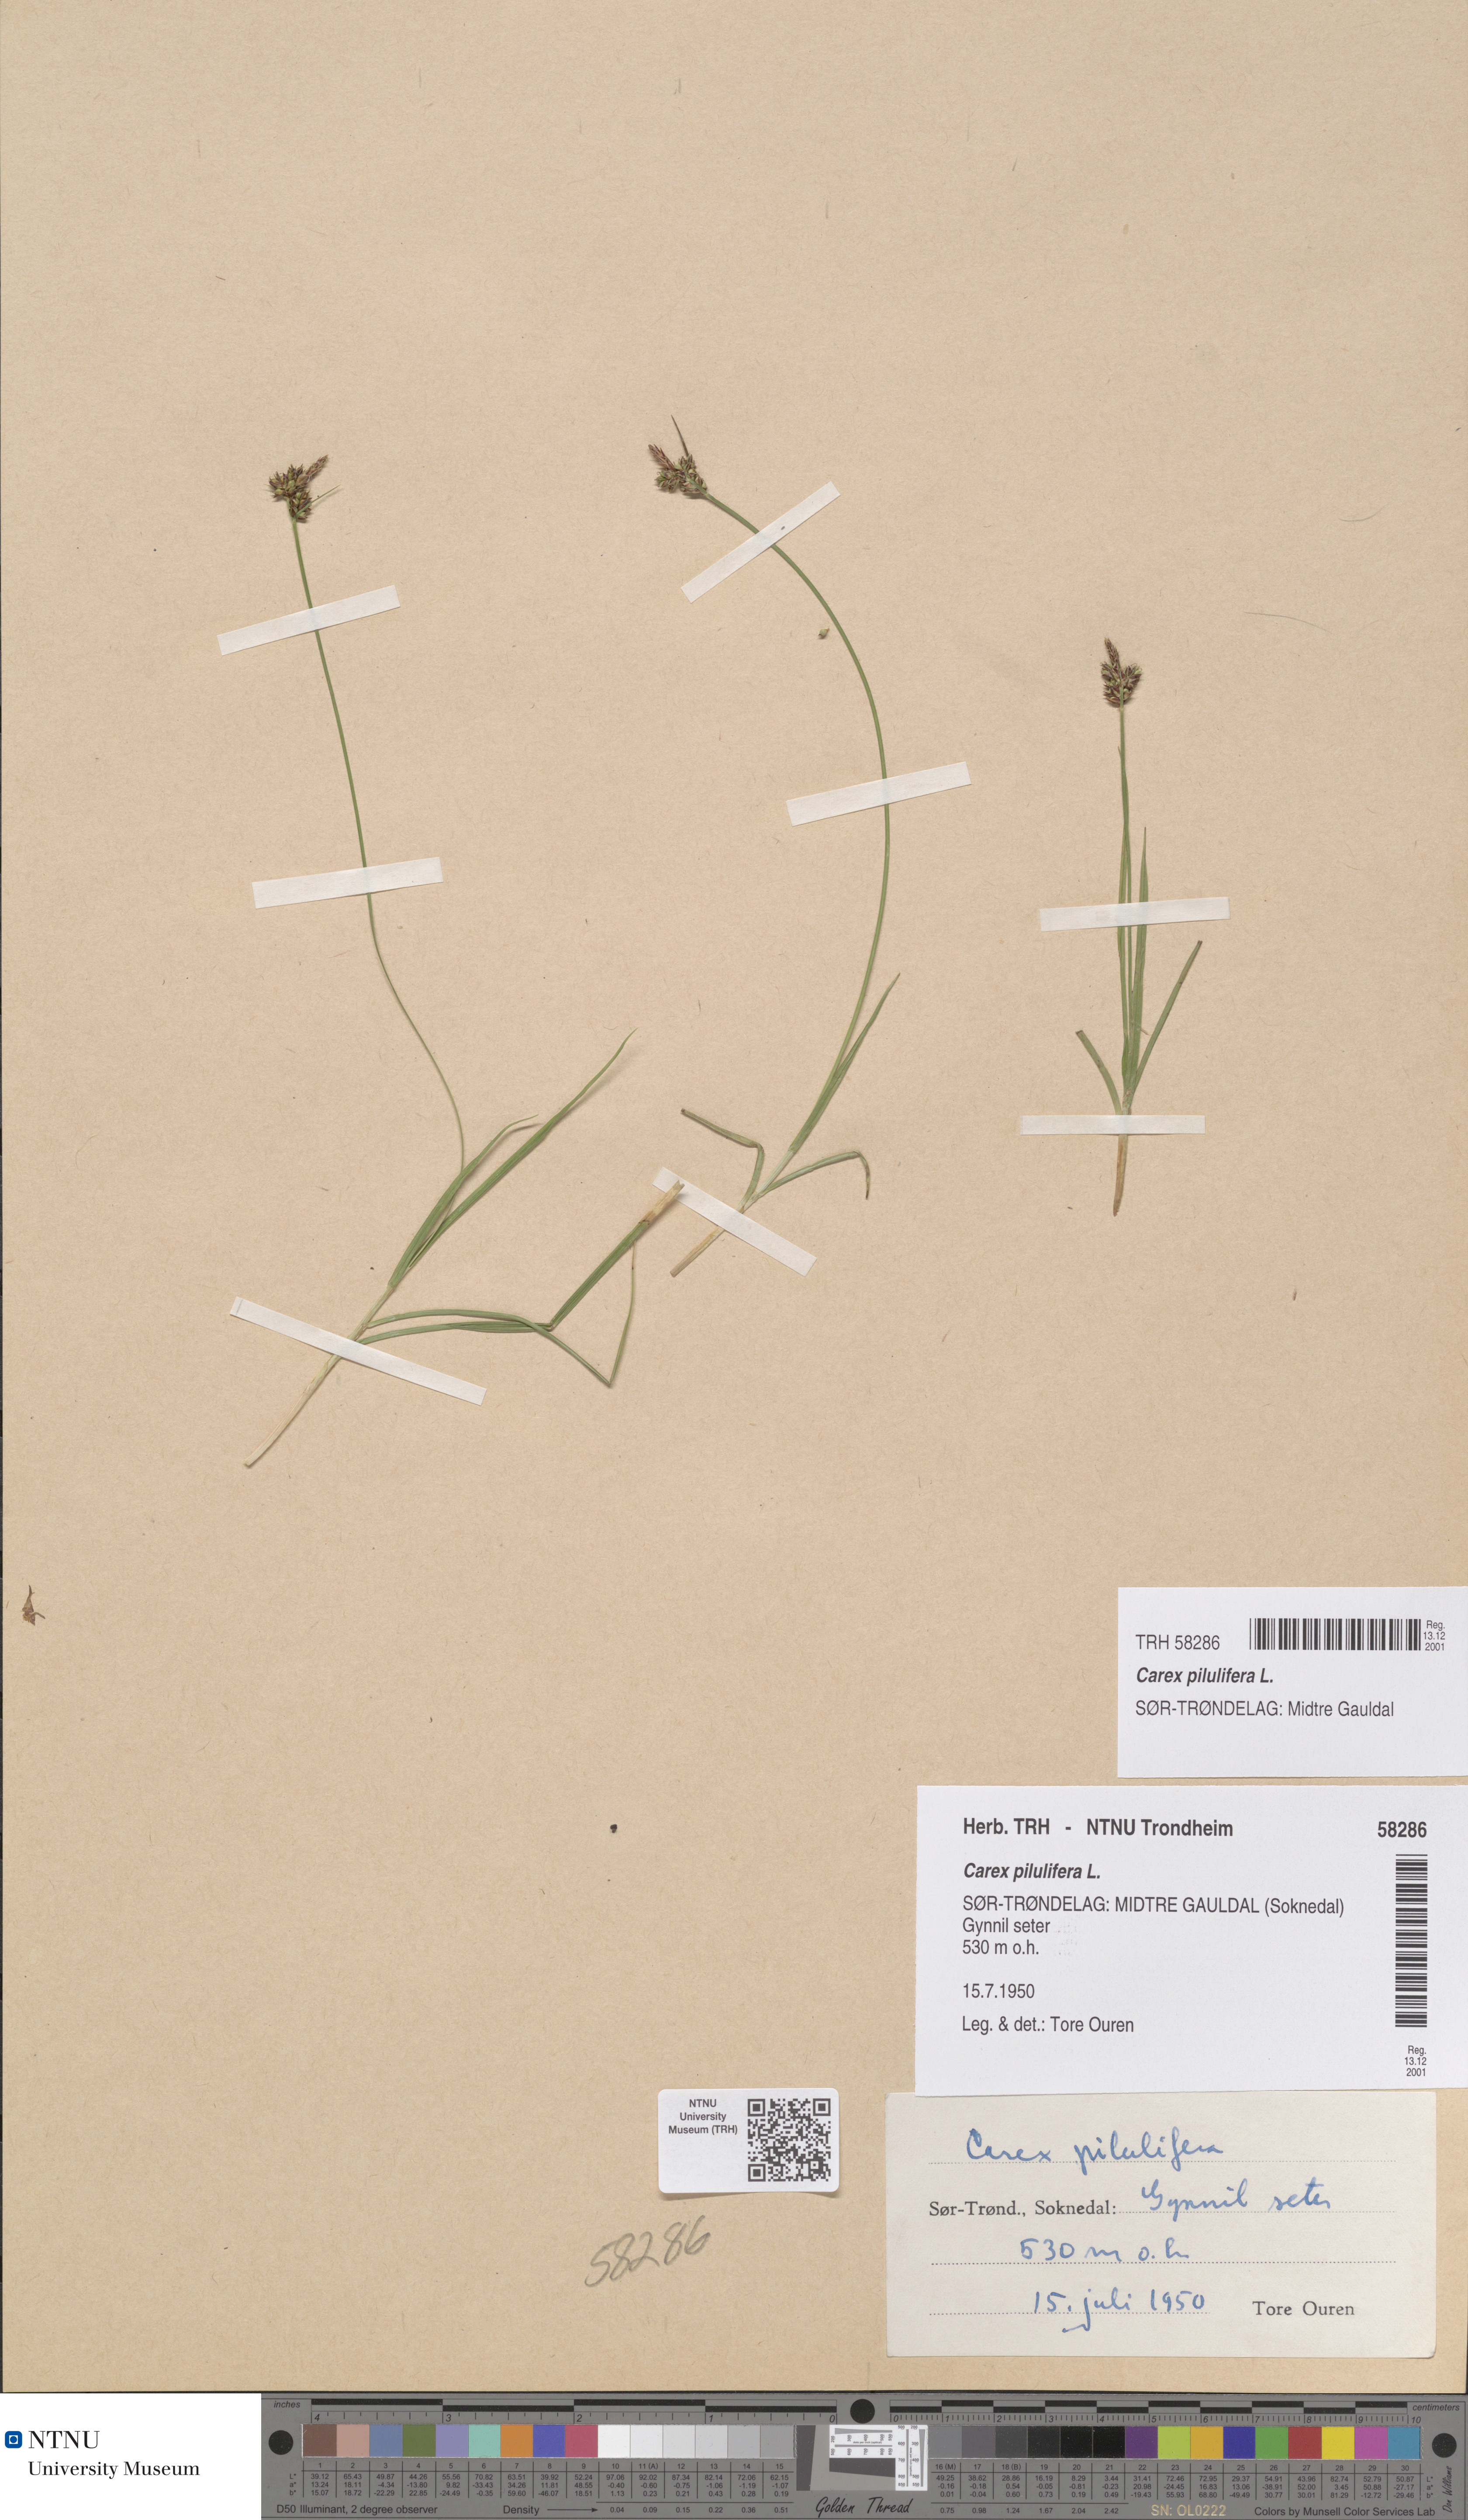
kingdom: Plantae
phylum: Tracheophyta
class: Liliopsida
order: Poales
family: Cyperaceae
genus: Carex
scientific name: Carex pilulifera
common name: Pill sedge
